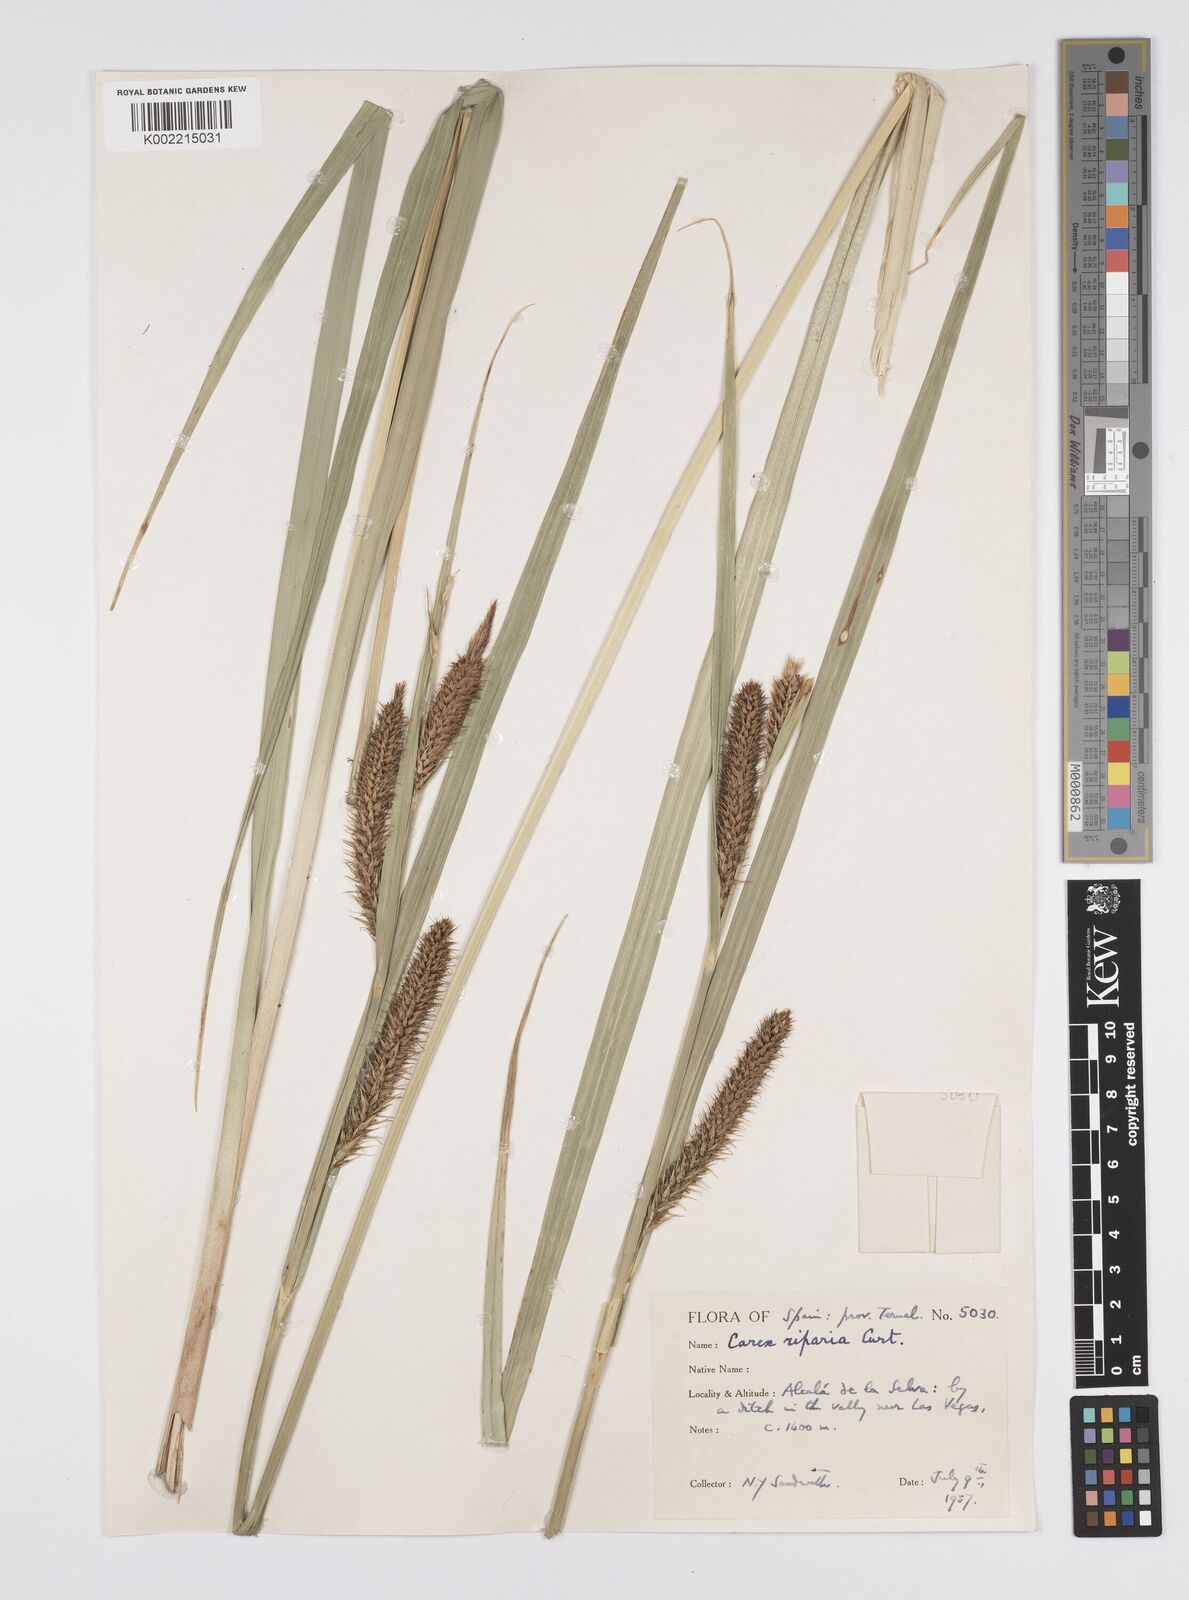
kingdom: Plantae
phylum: Tracheophyta
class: Liliopsida
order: Poales
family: Cyperaceae
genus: Carex
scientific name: Carex riparia
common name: Greater pond-sedge
